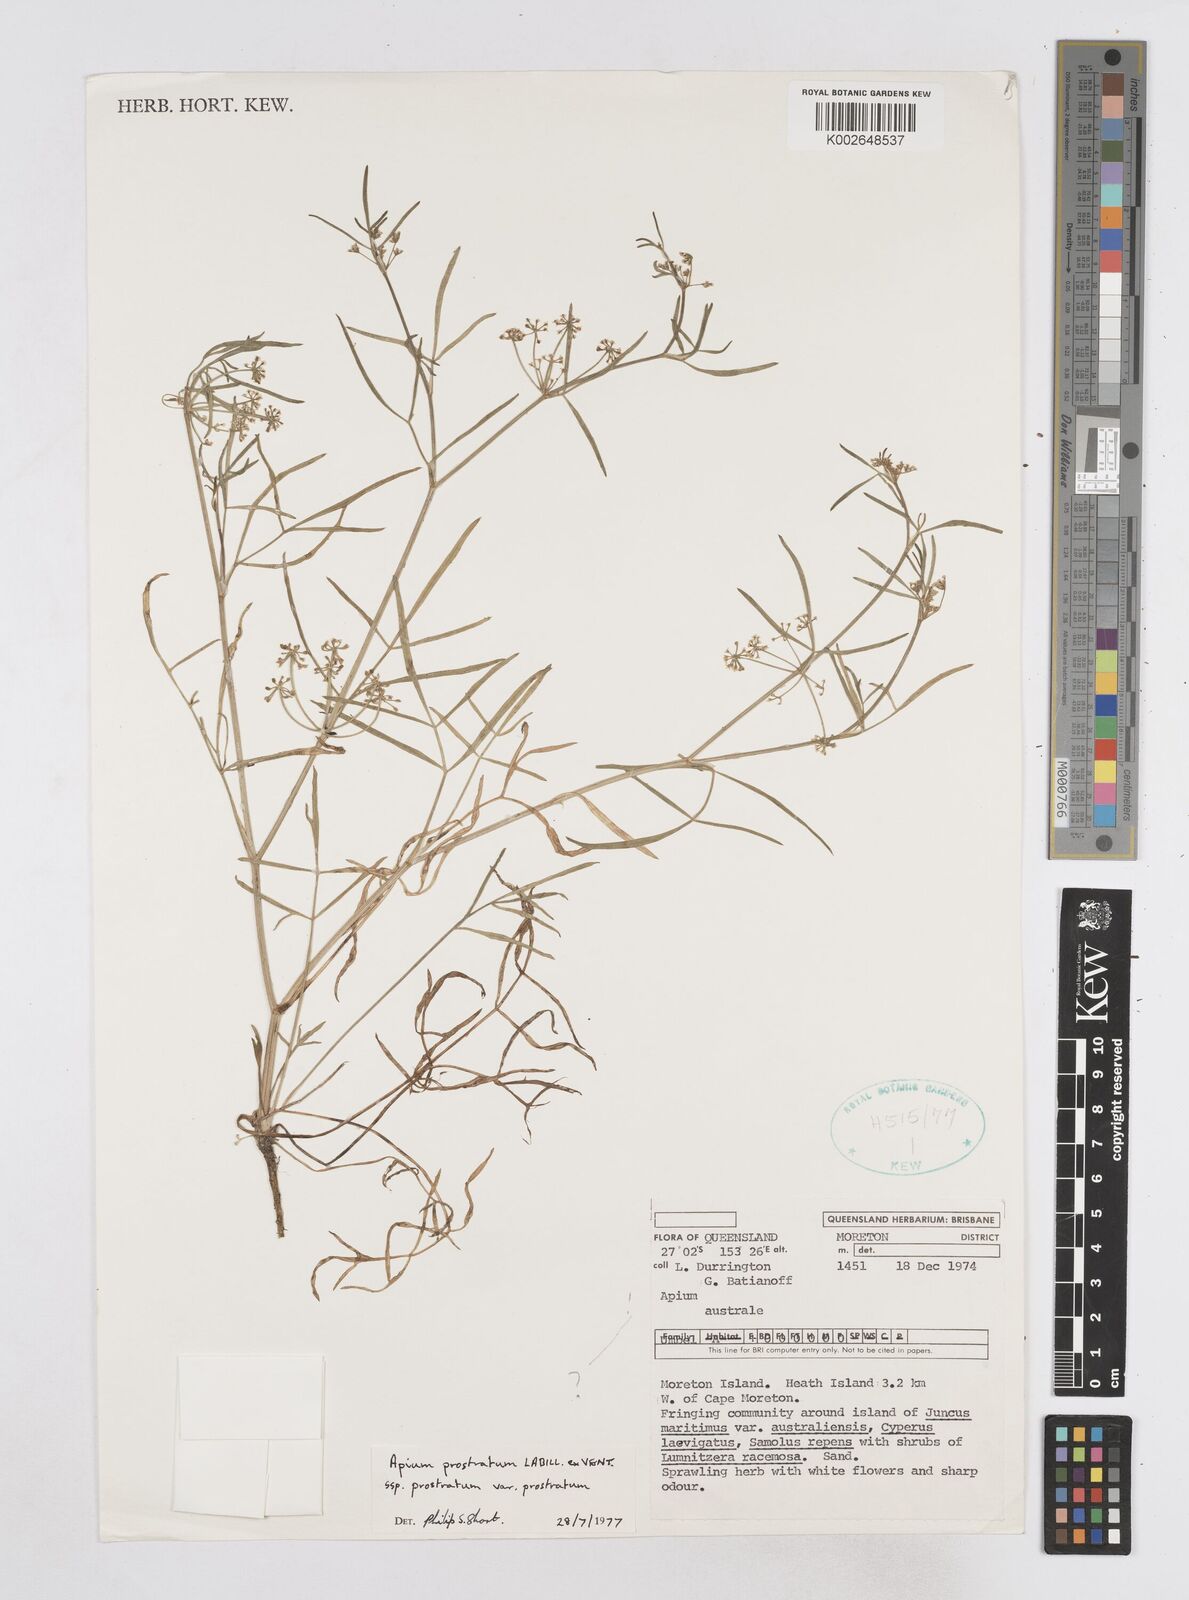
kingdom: Plantae
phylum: Tracheophyta
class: Magnoliopsida
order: Apiales
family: Apiaceae
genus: Apium
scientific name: Apium prostratum
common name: Prostrate marshwort
